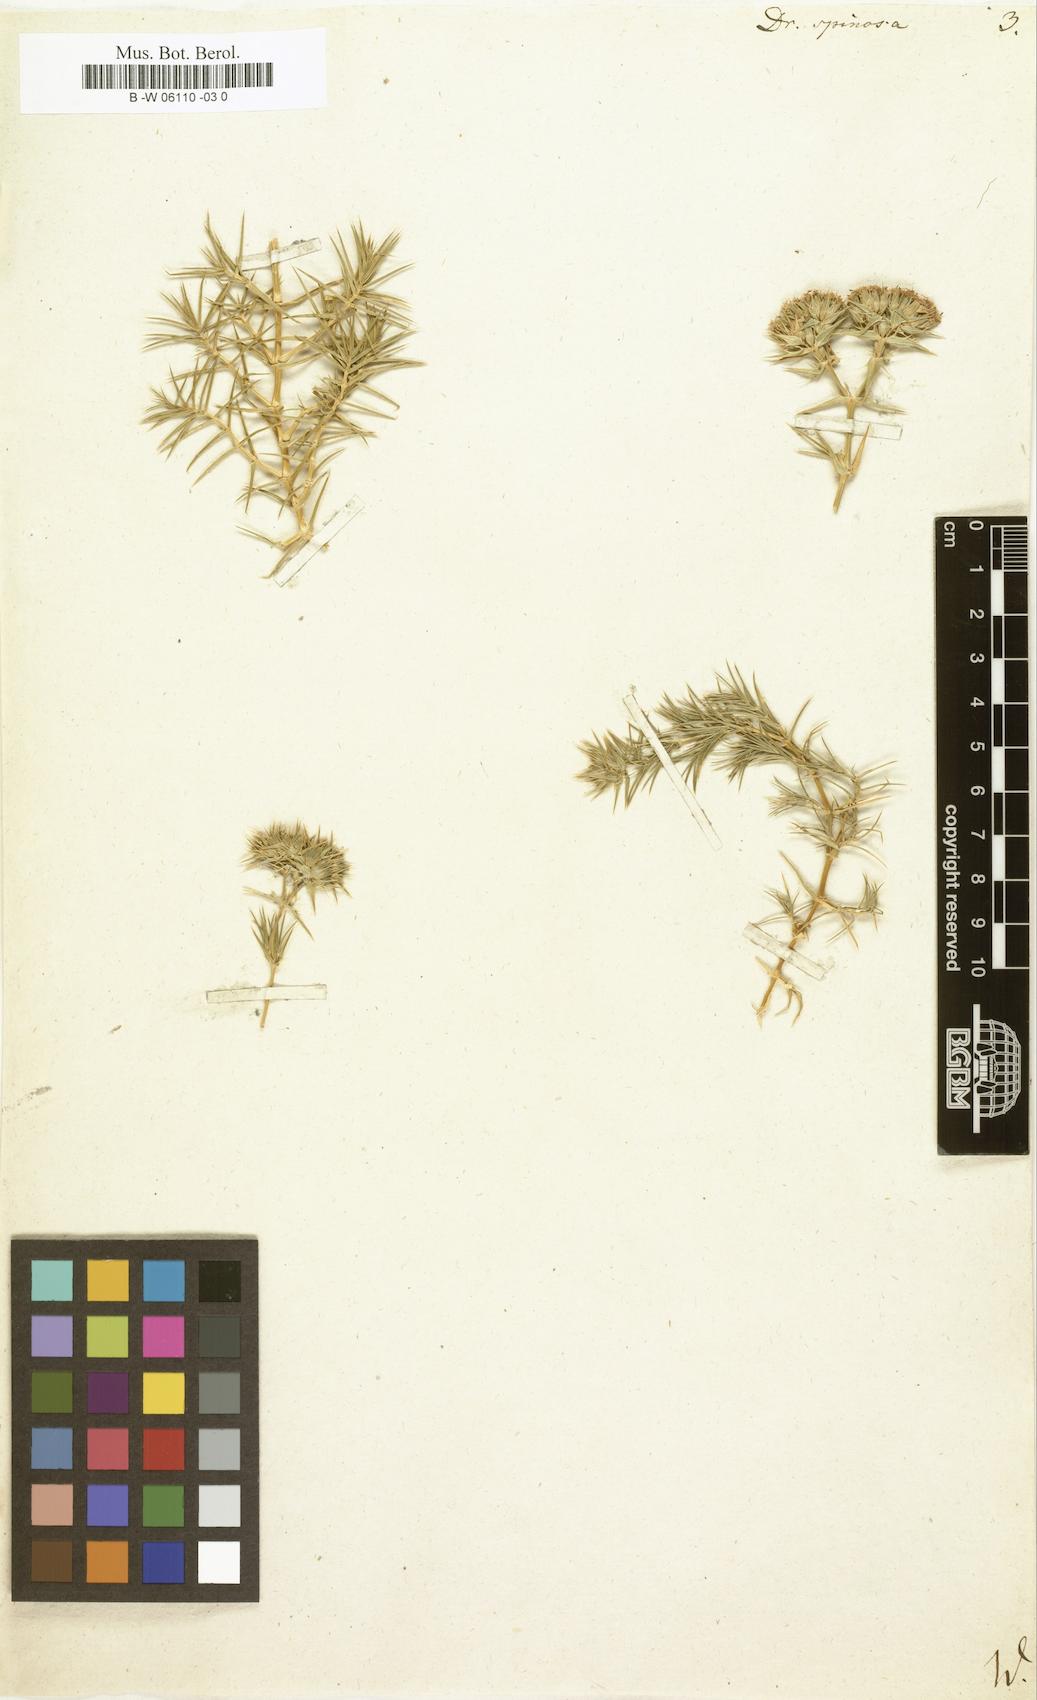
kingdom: Plantae
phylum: Tracheophyta
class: Magnoliopsida
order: Caryophyllales
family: Caryophyllaceae
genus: Drypis
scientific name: Drypis spinosa
